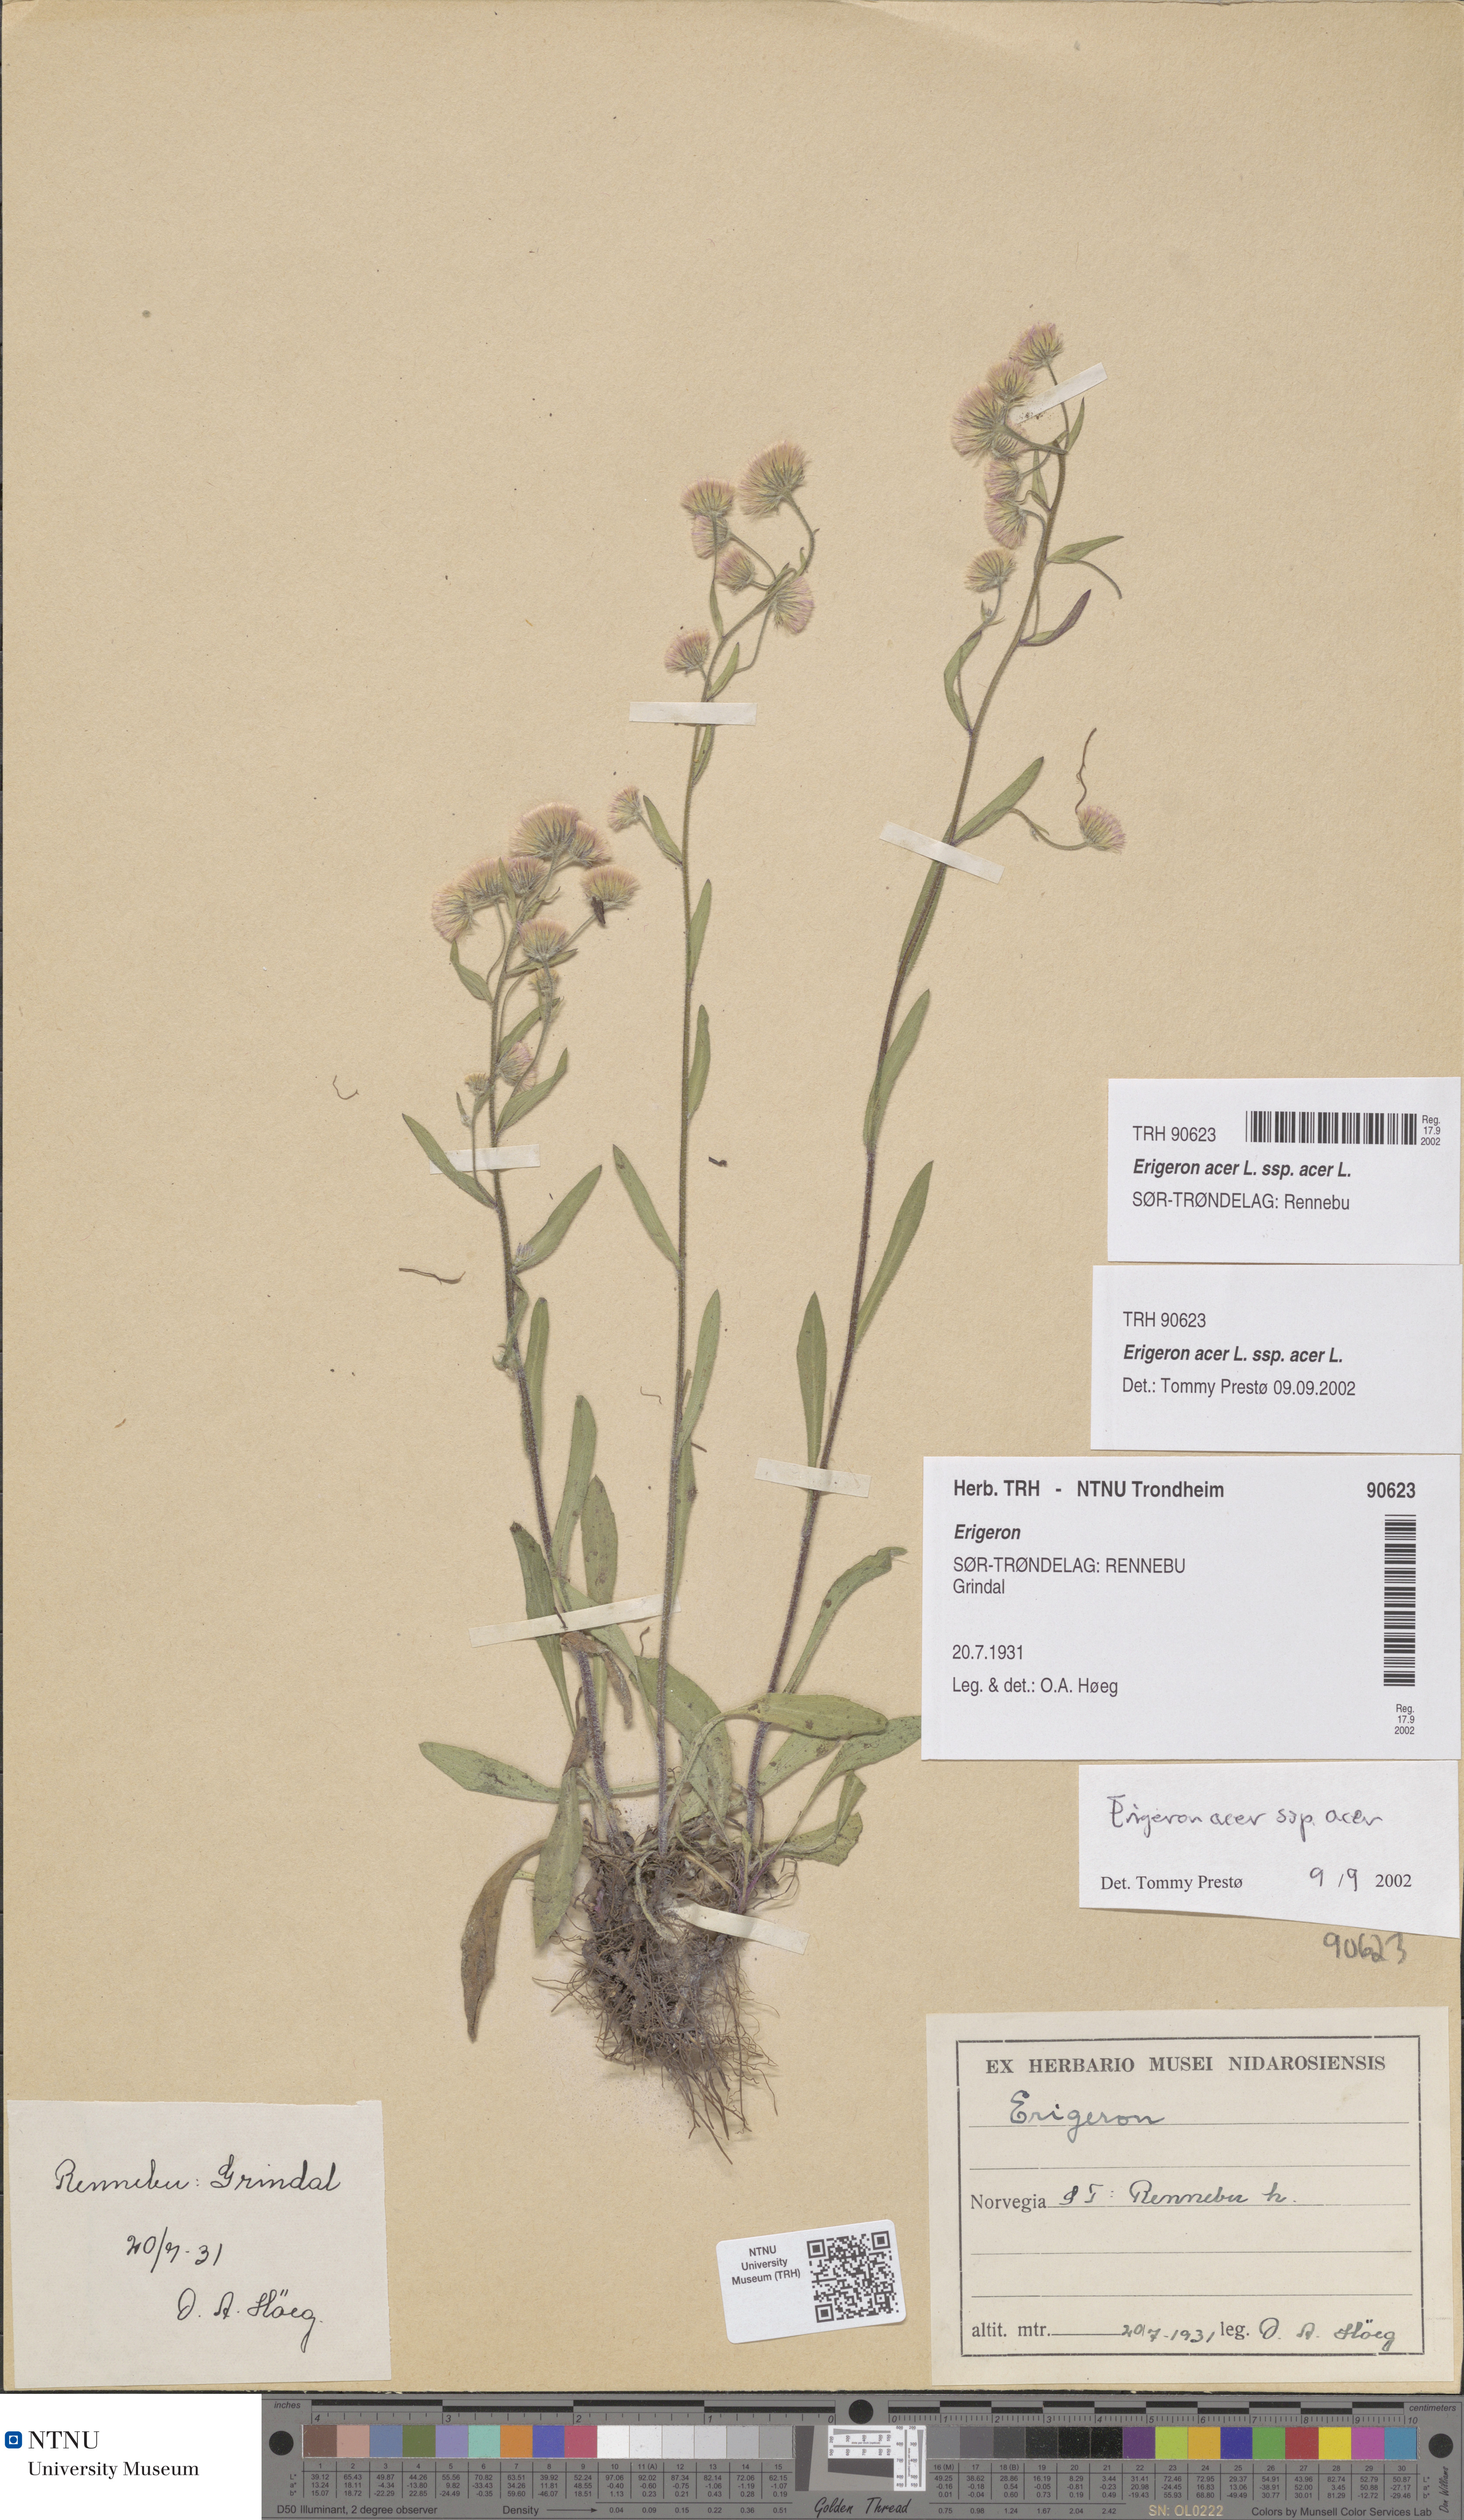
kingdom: Plantae
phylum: Tracheophyta
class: Magnoliopsida
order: Asterales
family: Asteraceae
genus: Erigeron
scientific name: Erigeron acris
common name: Blue fleabane
